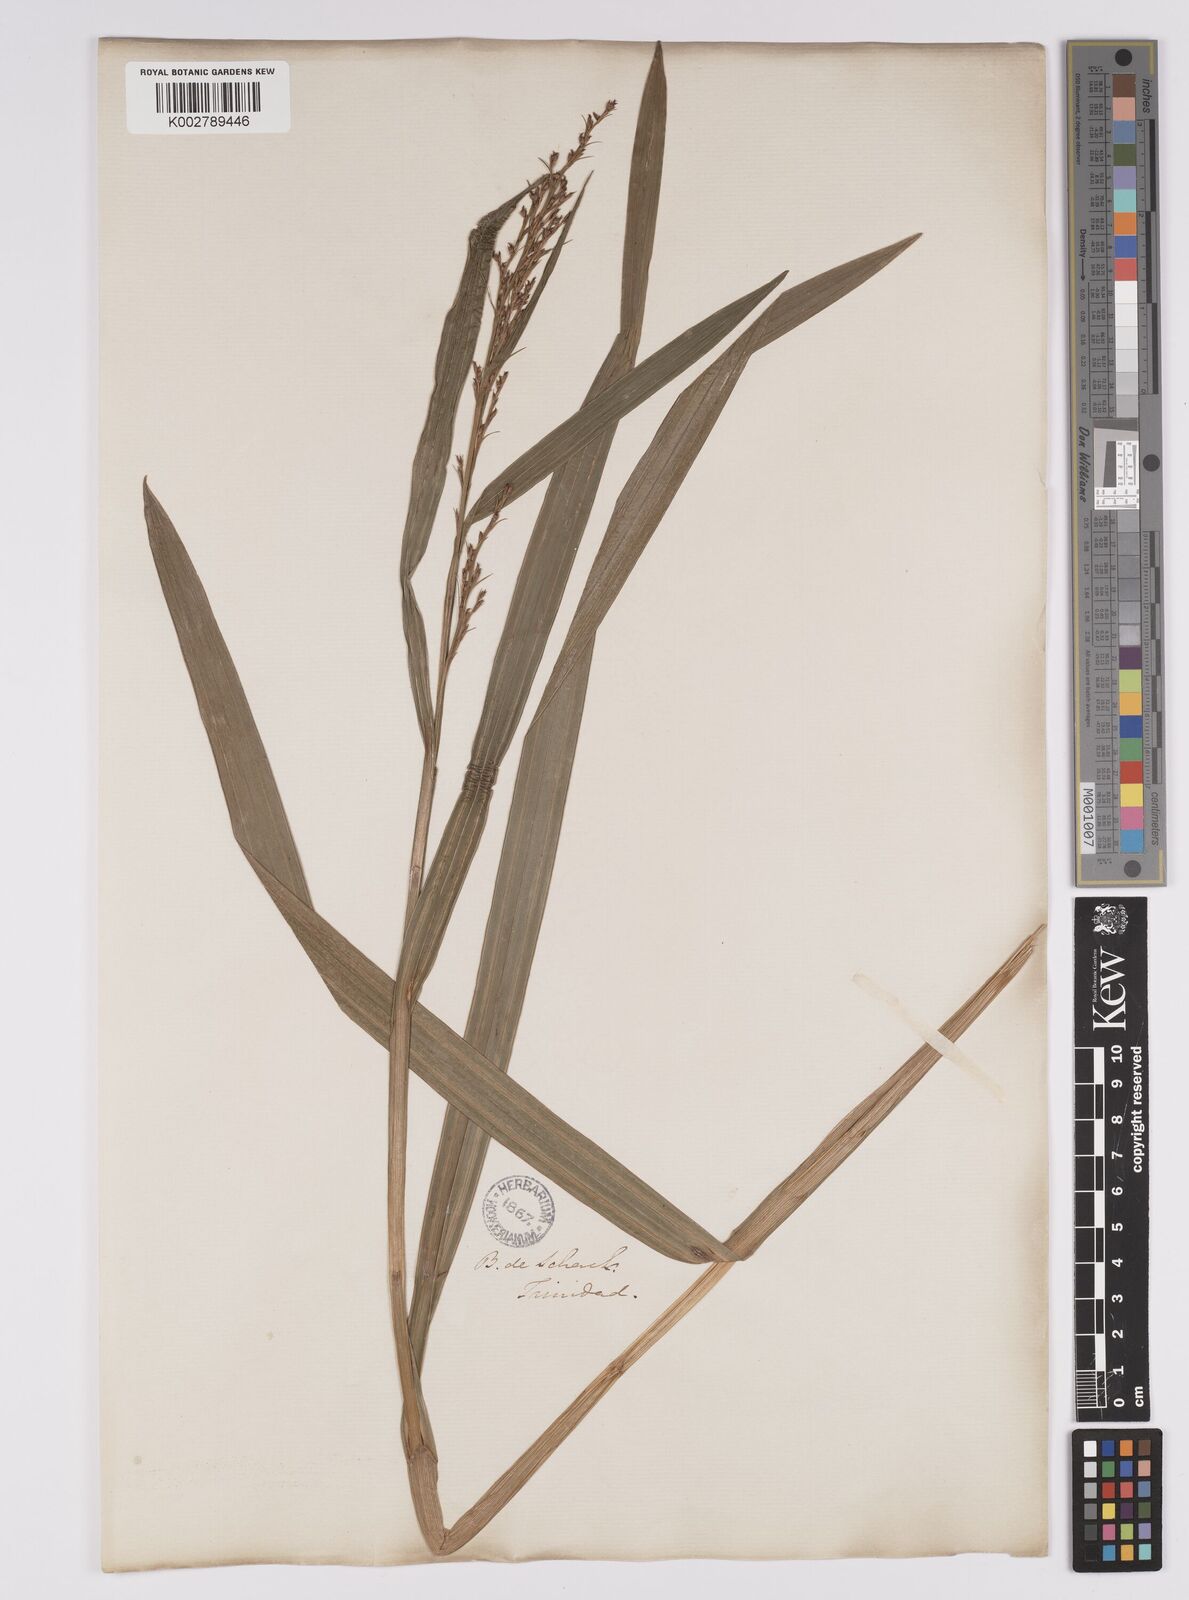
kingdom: Plantae
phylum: Tracheophyta
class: Liliopsida
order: Poales
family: Cyperaceae
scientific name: Cyperaceae
